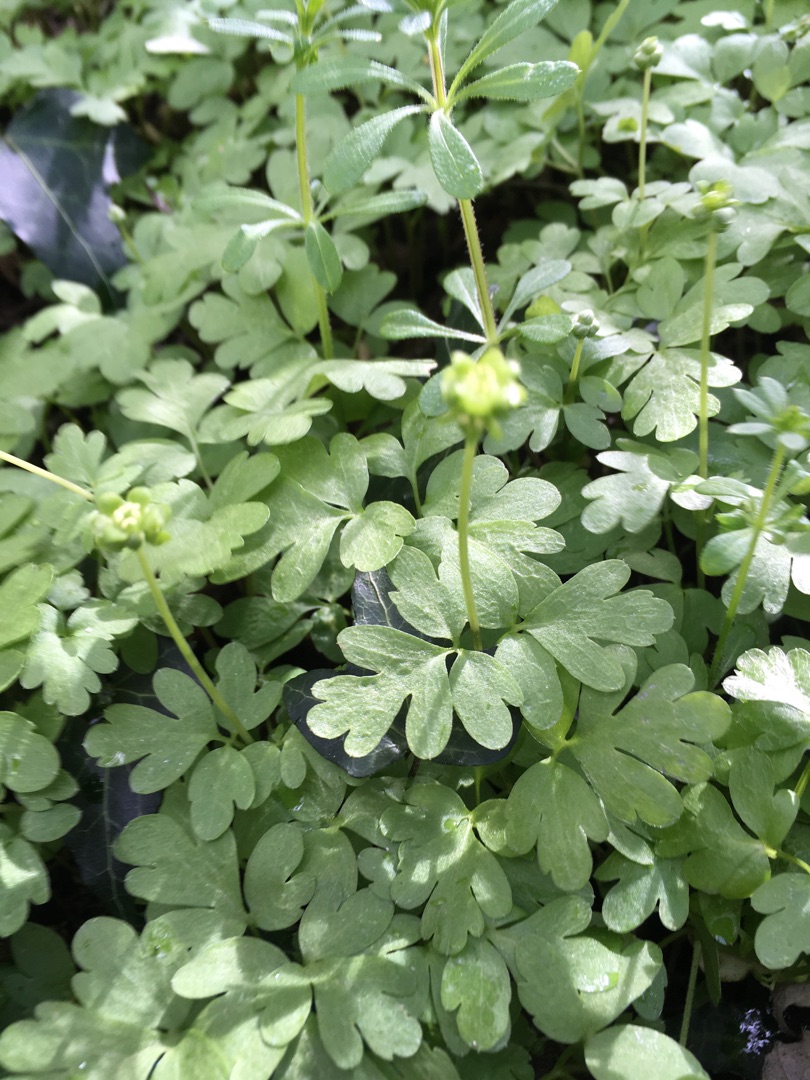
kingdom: Plantae
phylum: Tracheophyta
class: Magnoliopsida
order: Dipsacales
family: Viburnaceae
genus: Adoxa
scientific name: Adoxa moschatellina
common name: Desmerurt
